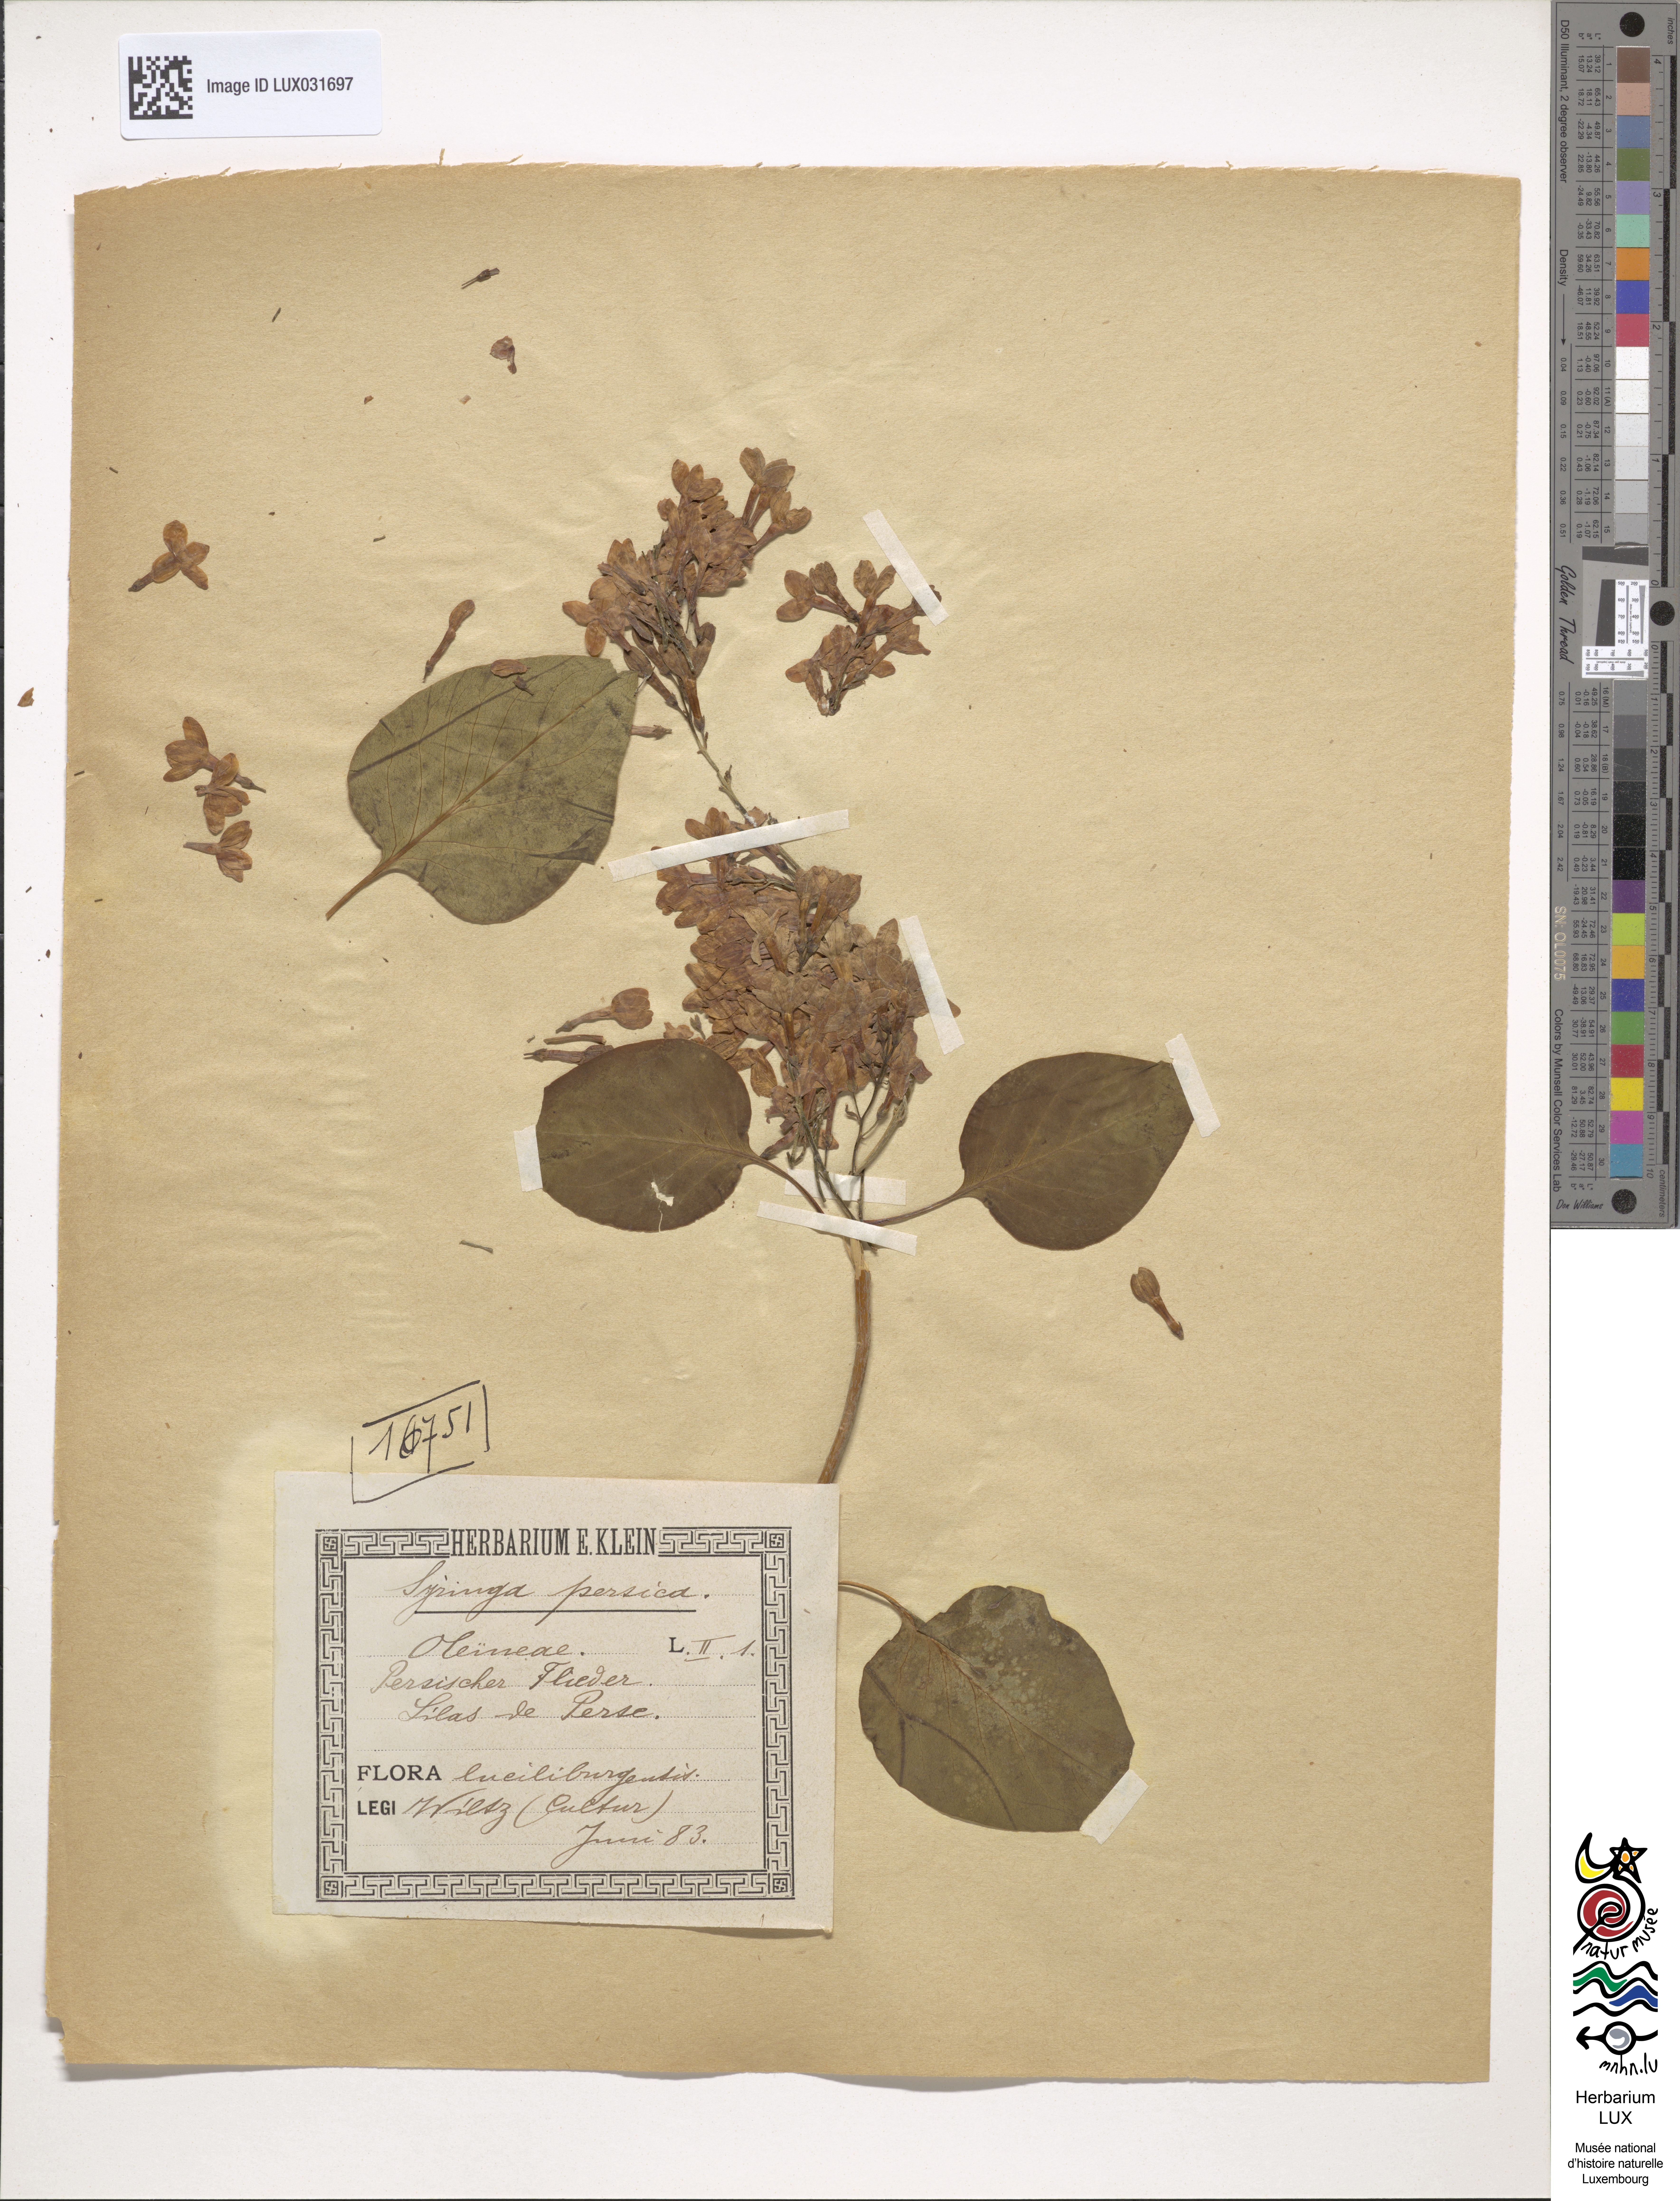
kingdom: Plantae
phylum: Tracheophyta
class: Magnoliopsida
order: Lamiales
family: Oleaceae
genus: Syringa
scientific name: Syringa persica
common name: Persian lilac
